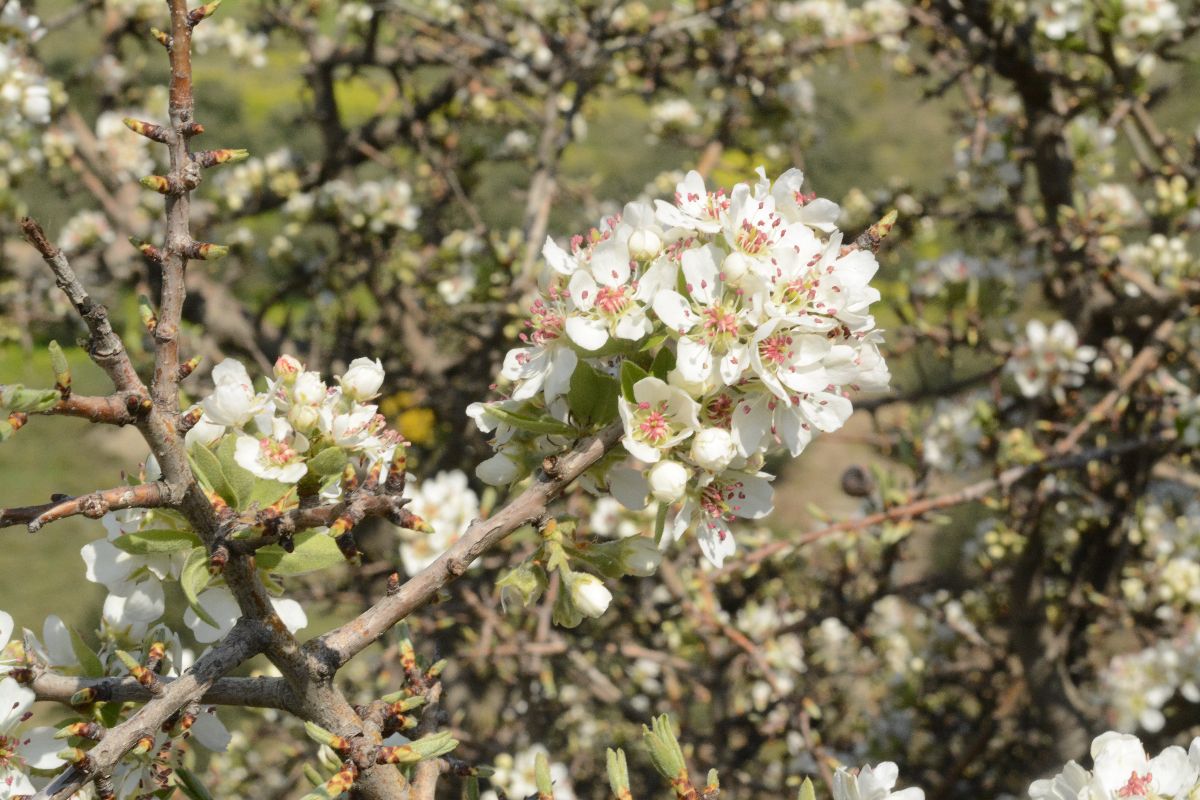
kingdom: Plantae
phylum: Tracheophyta
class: Magnoliopsida
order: Rosales
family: Rosaceae
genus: Crataegus
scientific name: Crataegus azarolus
